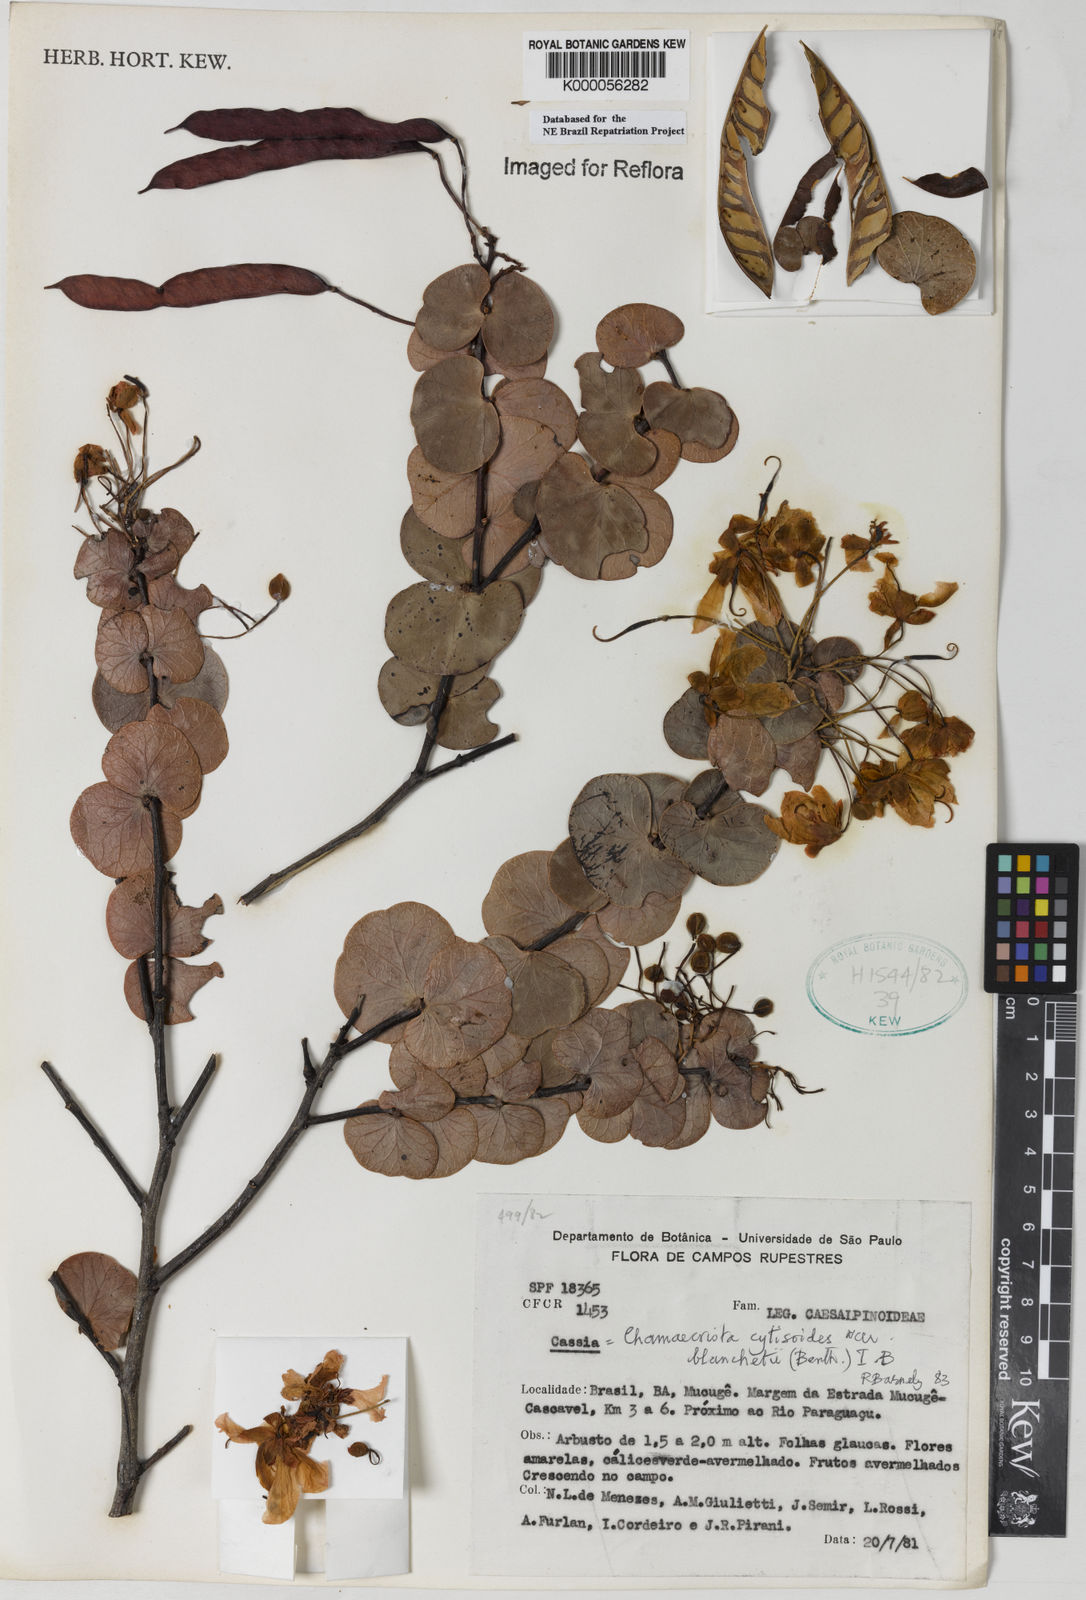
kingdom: Plantae
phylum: Tracheophyta
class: Magnoliopsida
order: Fabales
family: Fabaceae
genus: Chamaecrista
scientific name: Chamaecrista cytisoides
